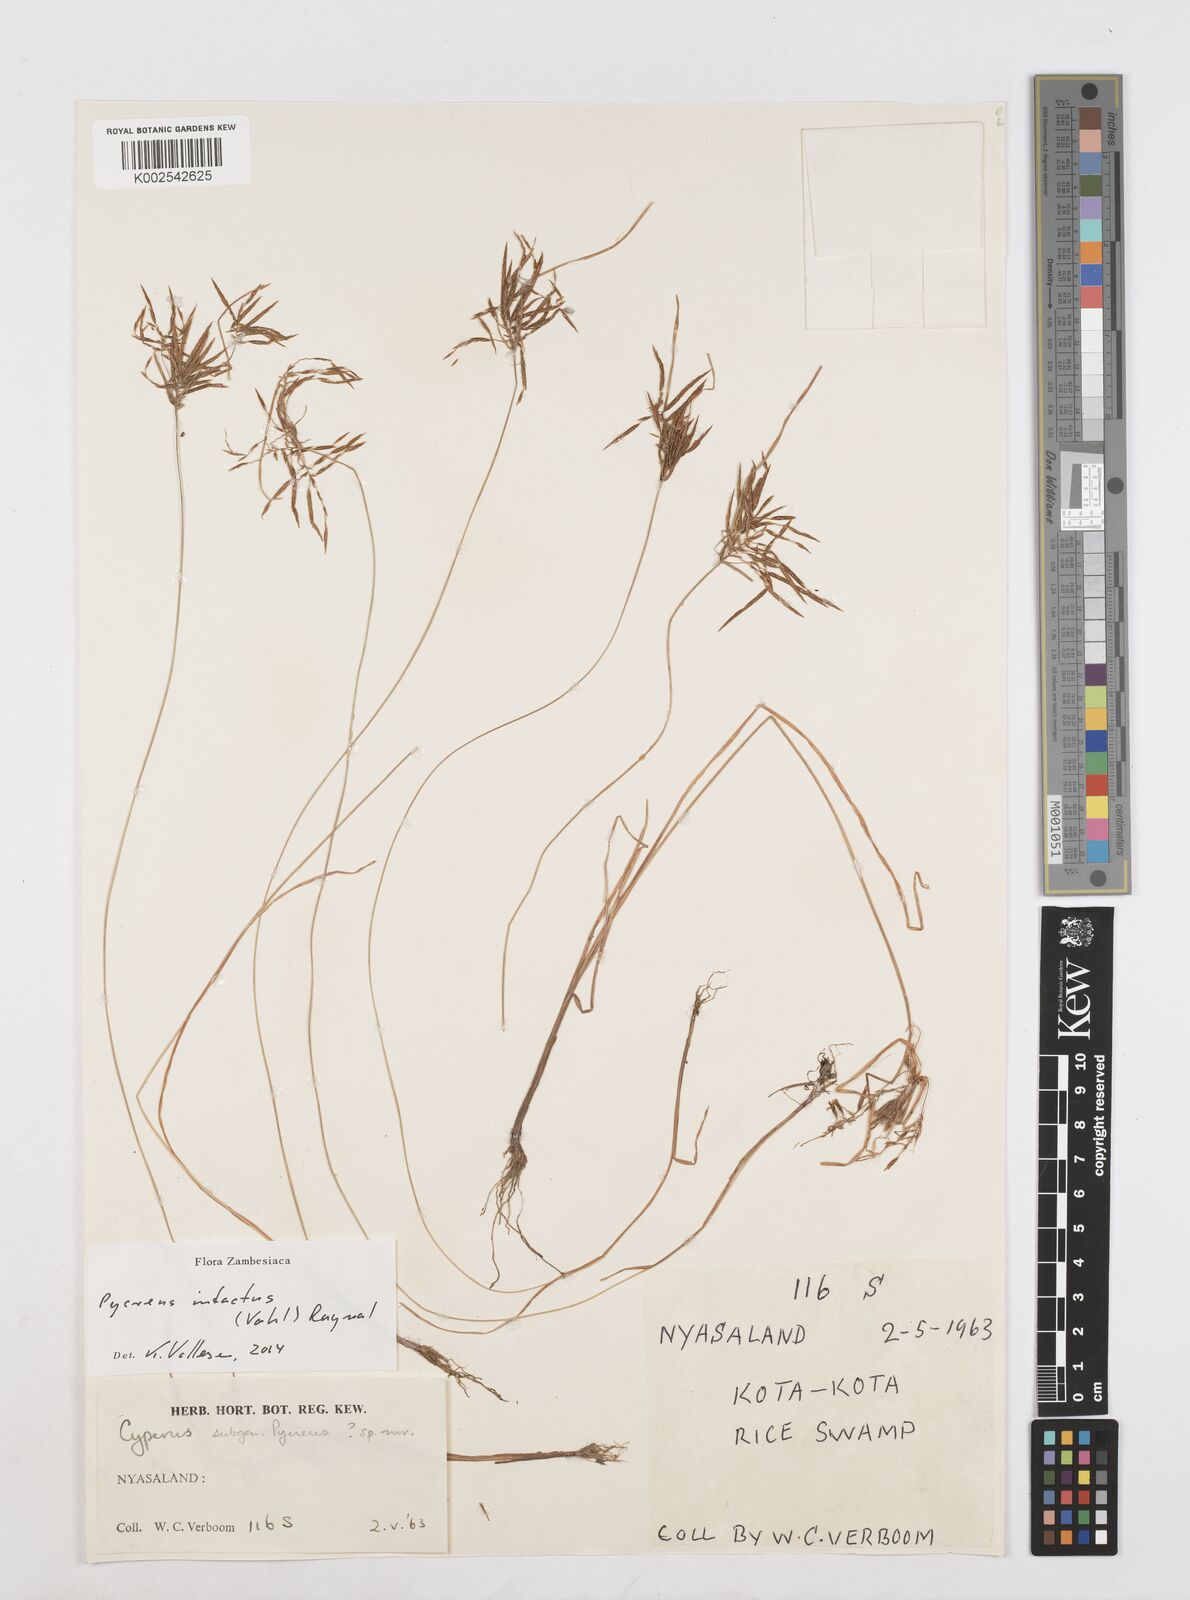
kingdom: Plantae
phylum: Tracheophyta
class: Liliopsida
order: Poales
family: Cyperaceae
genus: Cyperus
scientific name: Cyperus intactus
